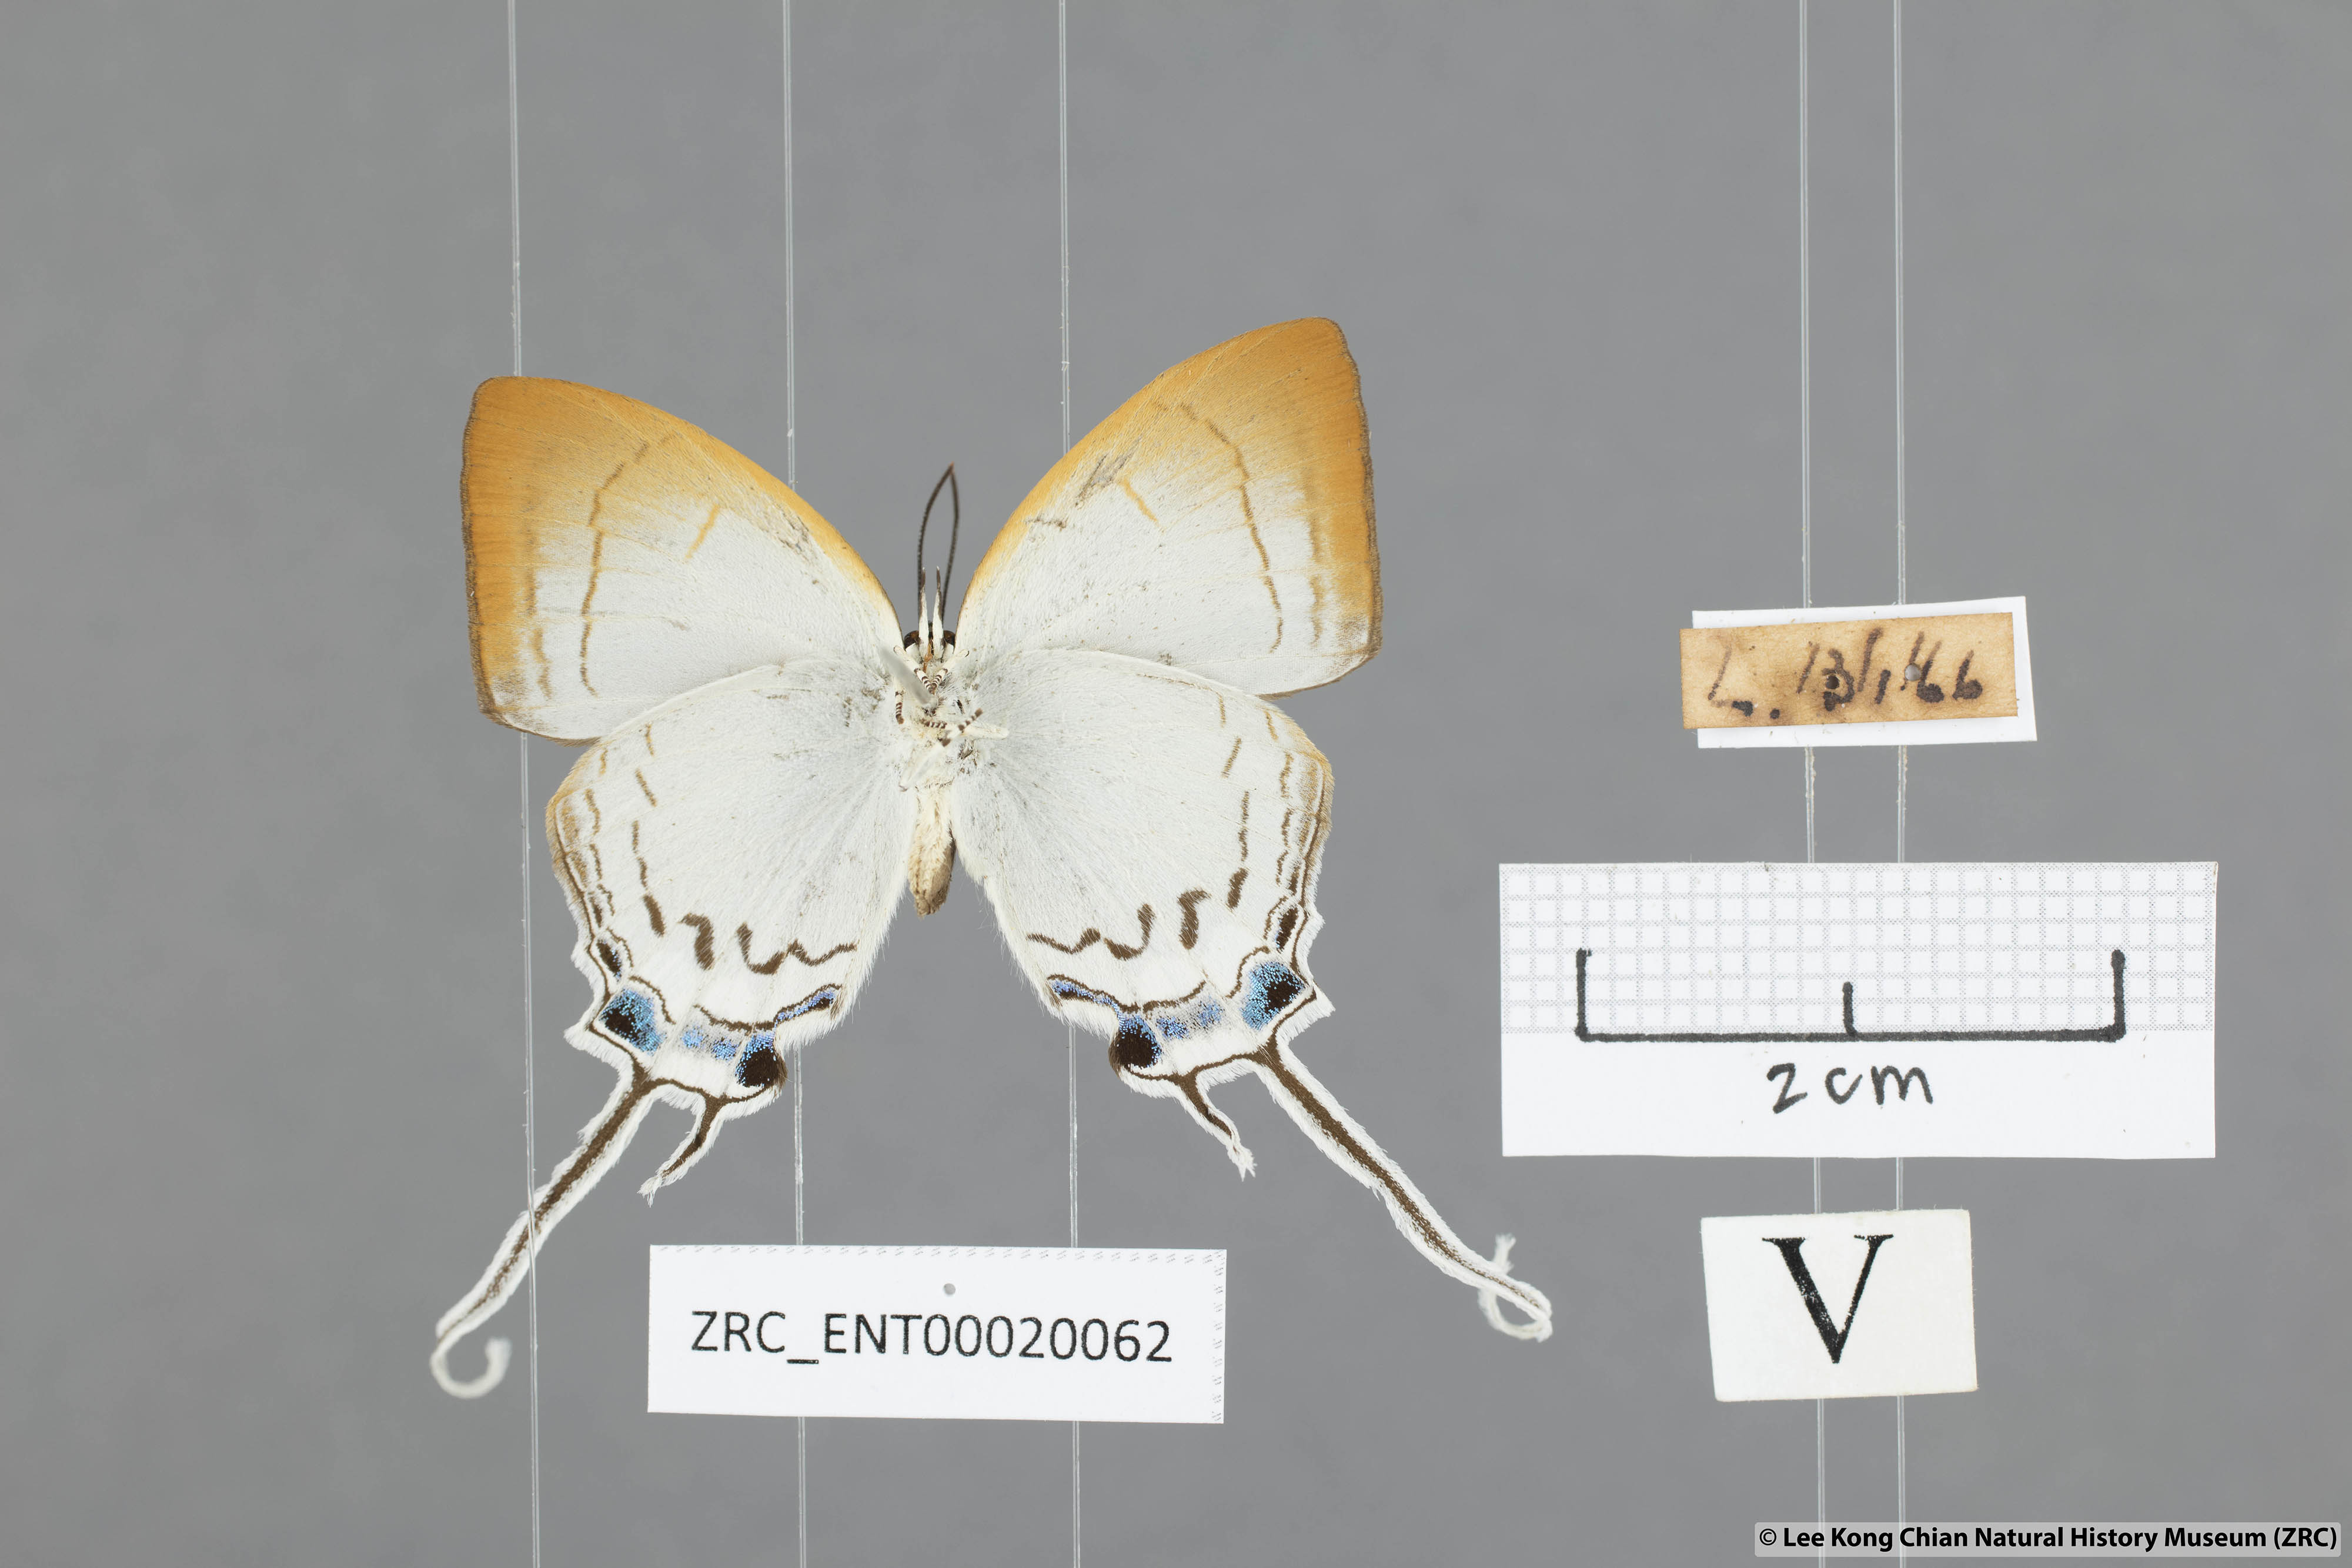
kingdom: Animalia
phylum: Arthropoda
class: Insecta
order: Lepidoptera
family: Lycaenidae
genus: Cheritra
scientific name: Cheritra freja
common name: Common imperial
